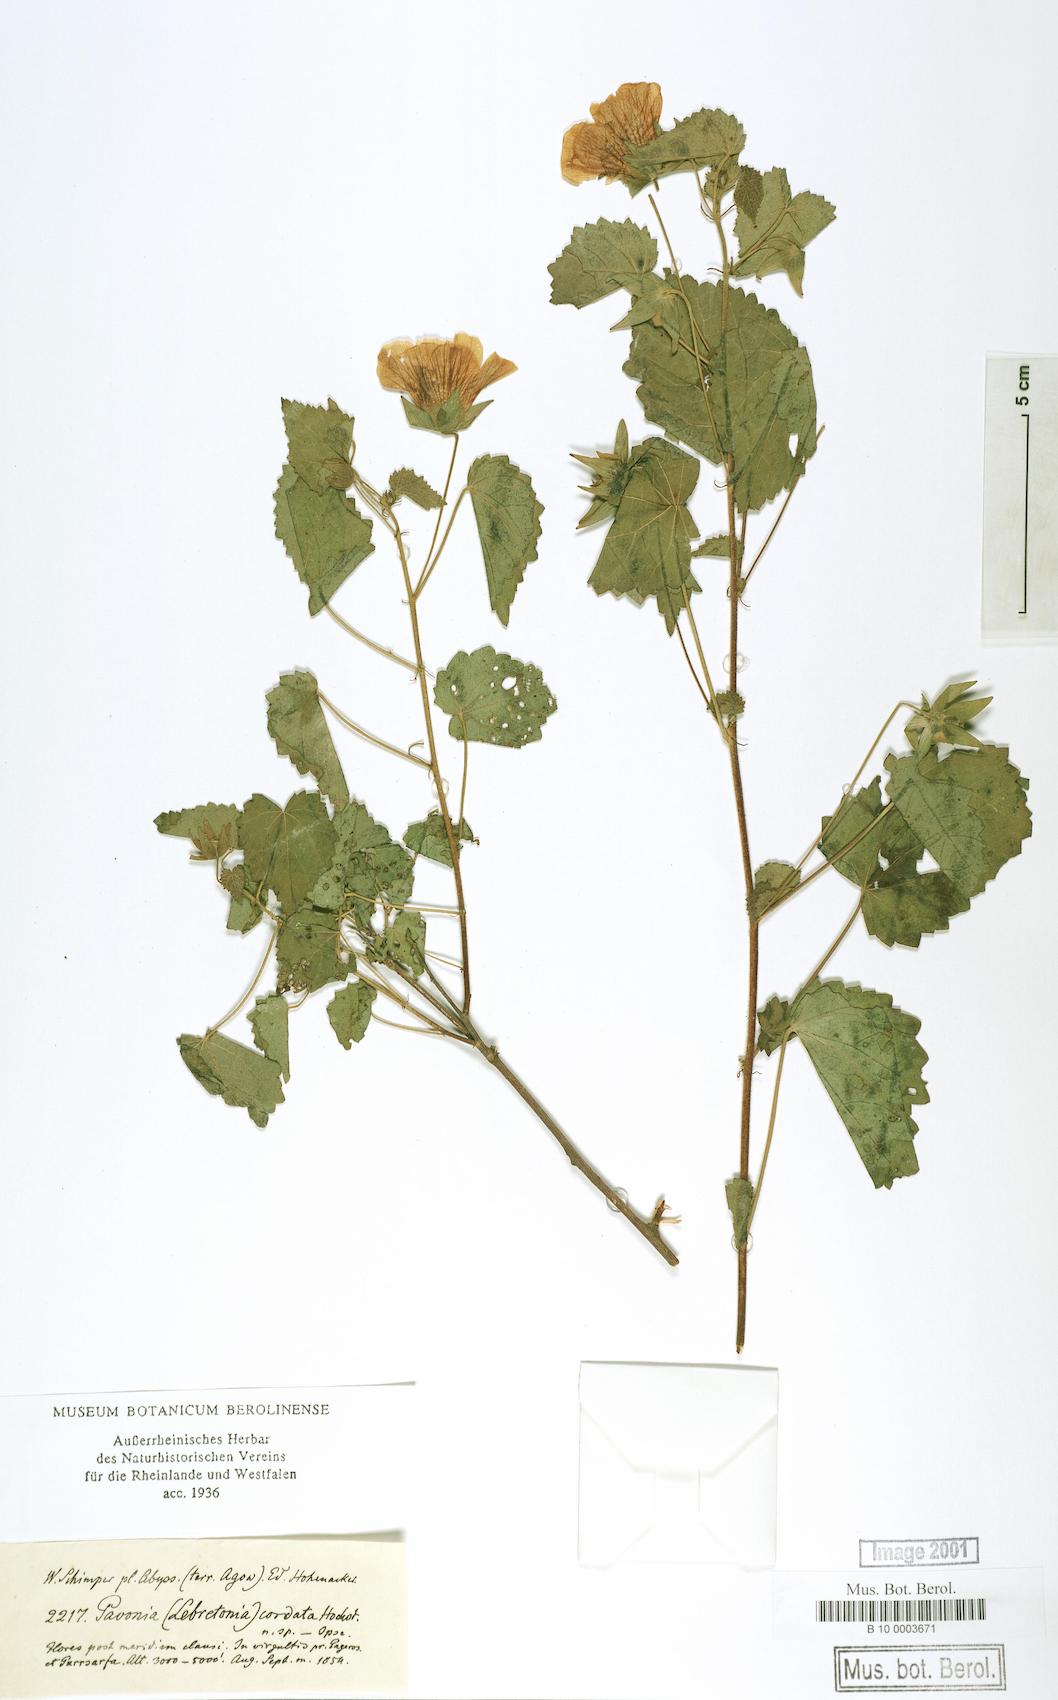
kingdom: Plantae
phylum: Tracheophyta
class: Magnoliopsida
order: Malvales
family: Malvaceae
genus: Pavonia
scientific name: Pavonia flavoferruginea
